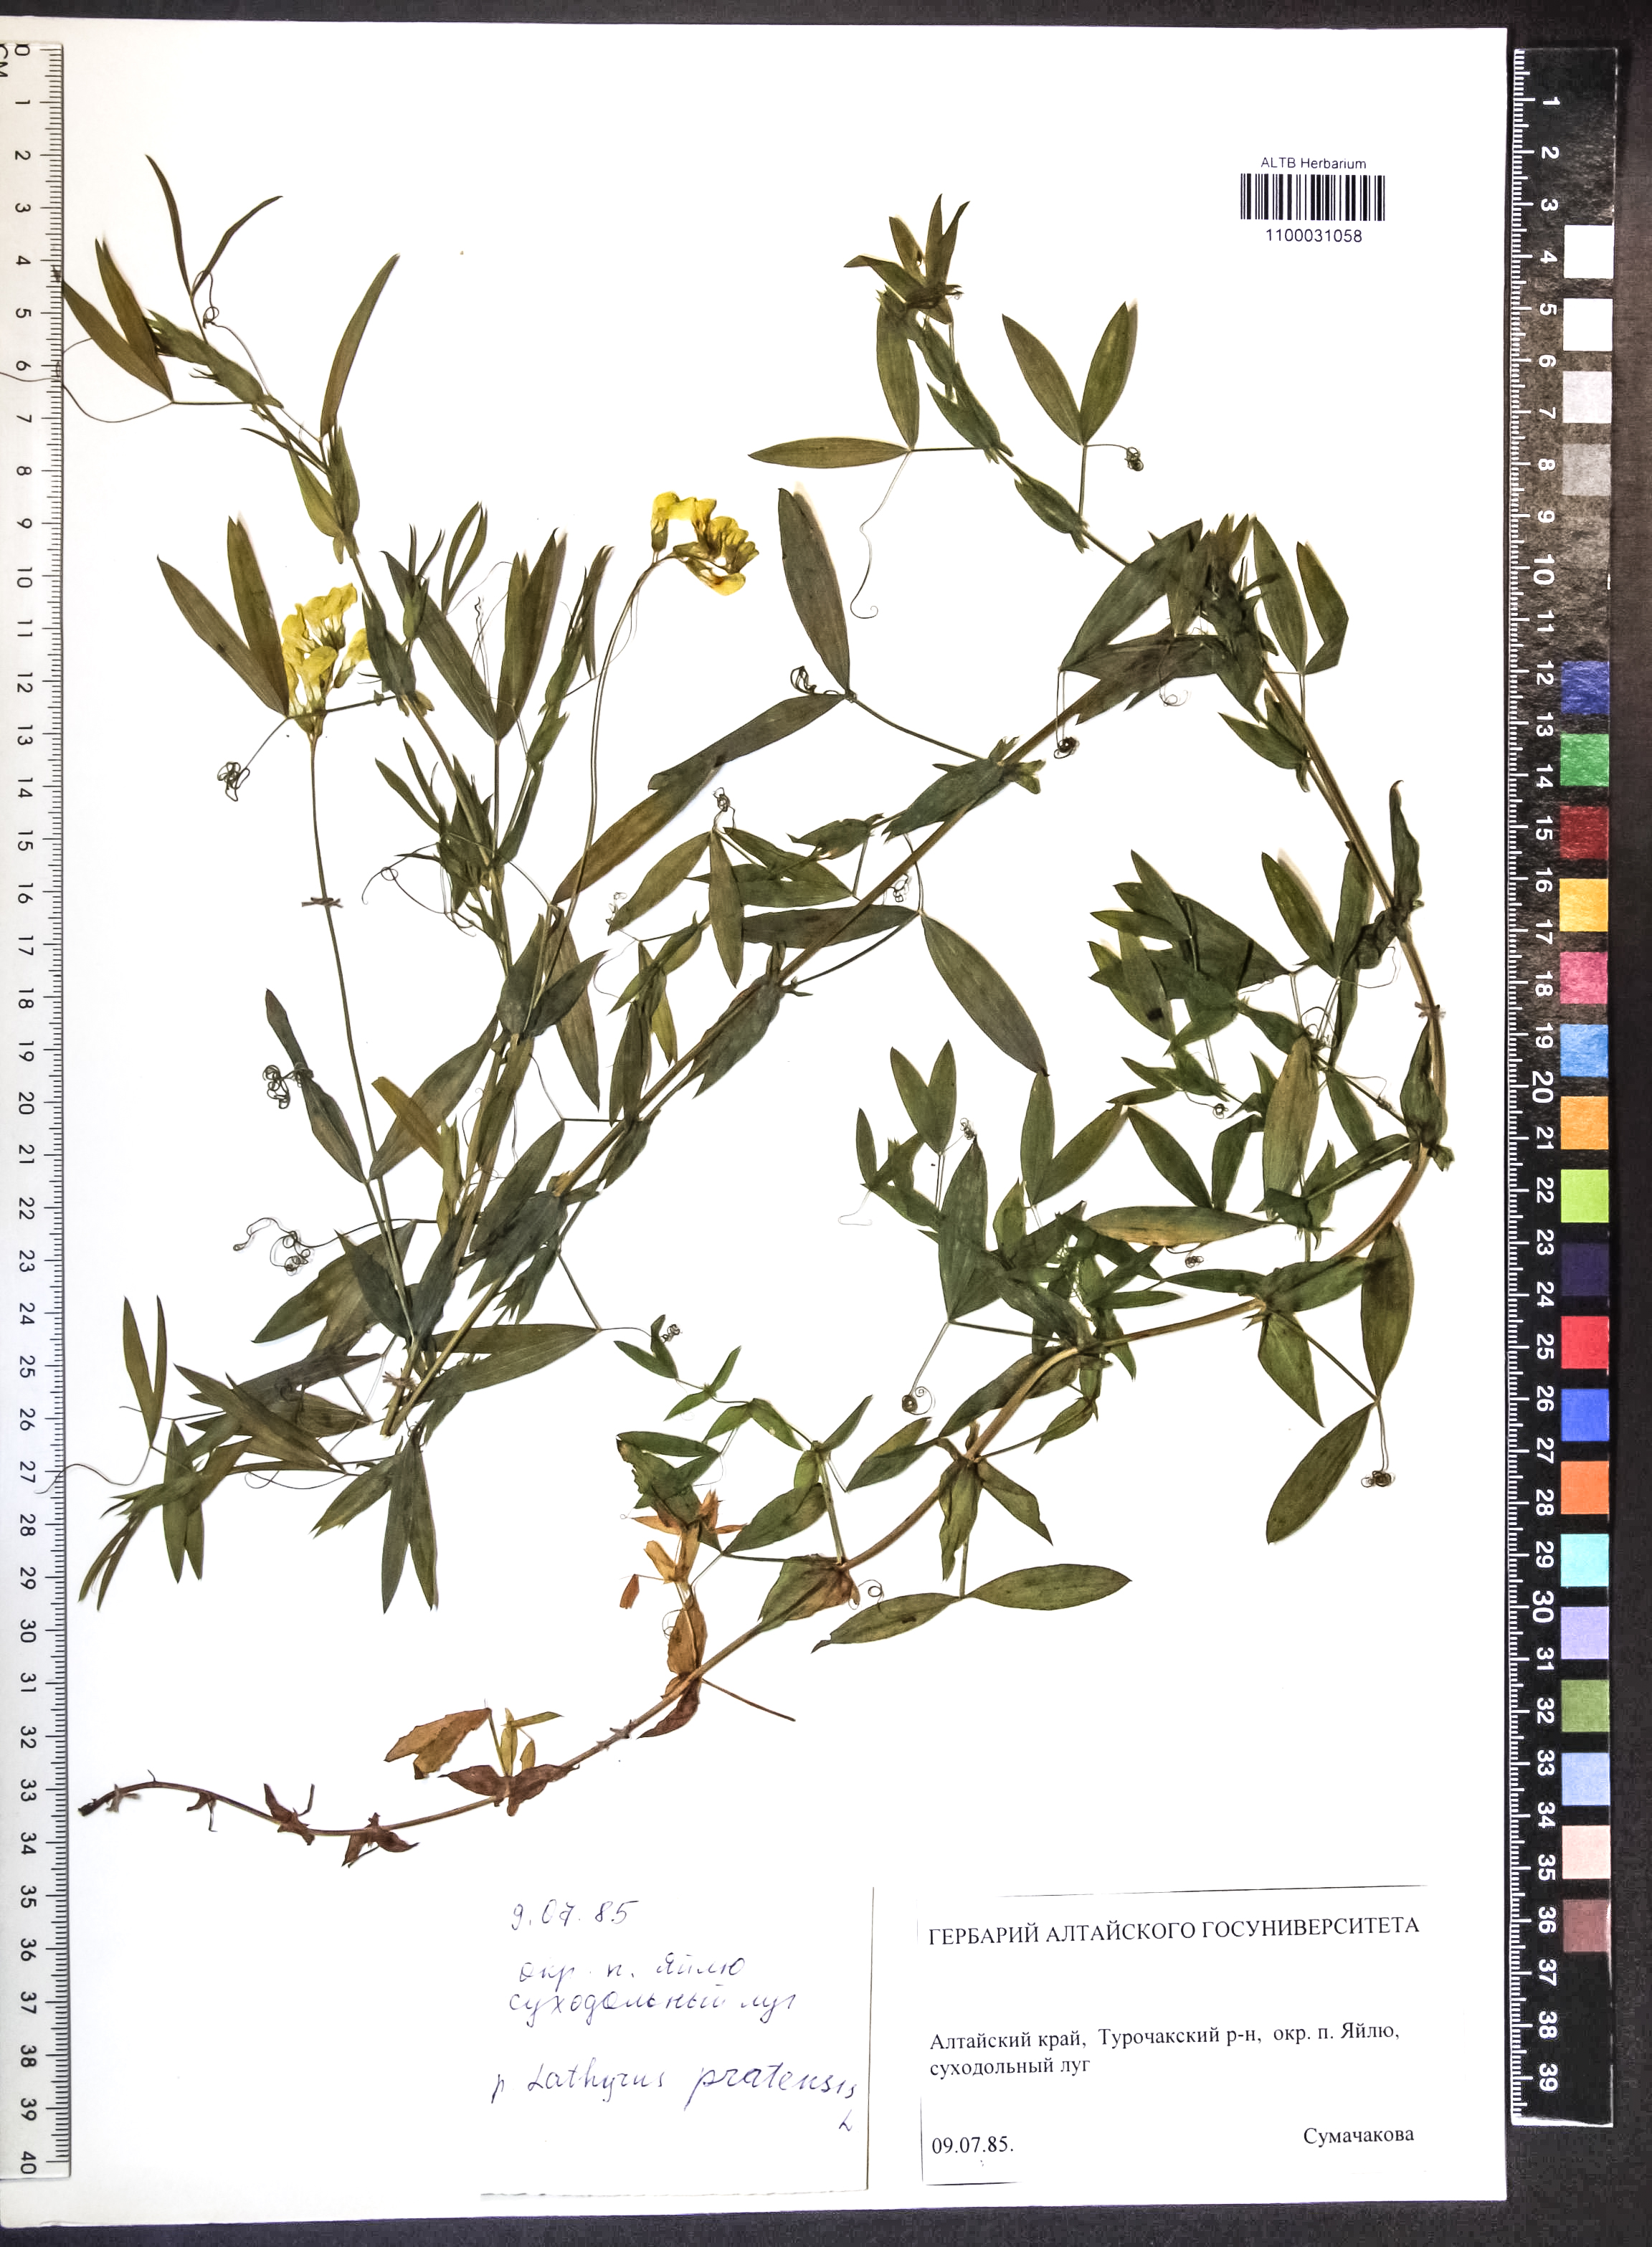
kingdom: Plantae
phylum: Tracheophyta
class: Magnoliopsida
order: Fabales
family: Fabaceae
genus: Lathyrus
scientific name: Lathyrus pratensis
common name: Meadow vetchling
